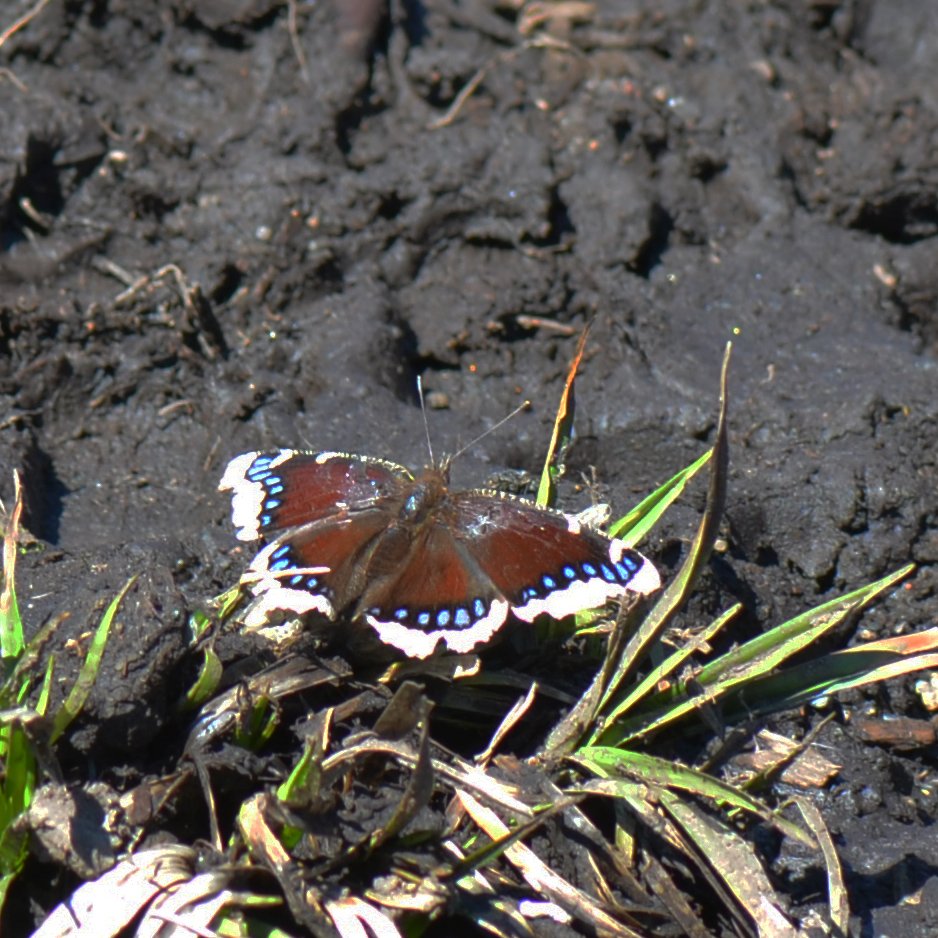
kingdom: Animalia
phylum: Arthropoda
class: Insecta
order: Lepidoptera
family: Nymphalidae
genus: Nymphalis
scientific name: Nymphalis antiopa
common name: Mourning Cloak
